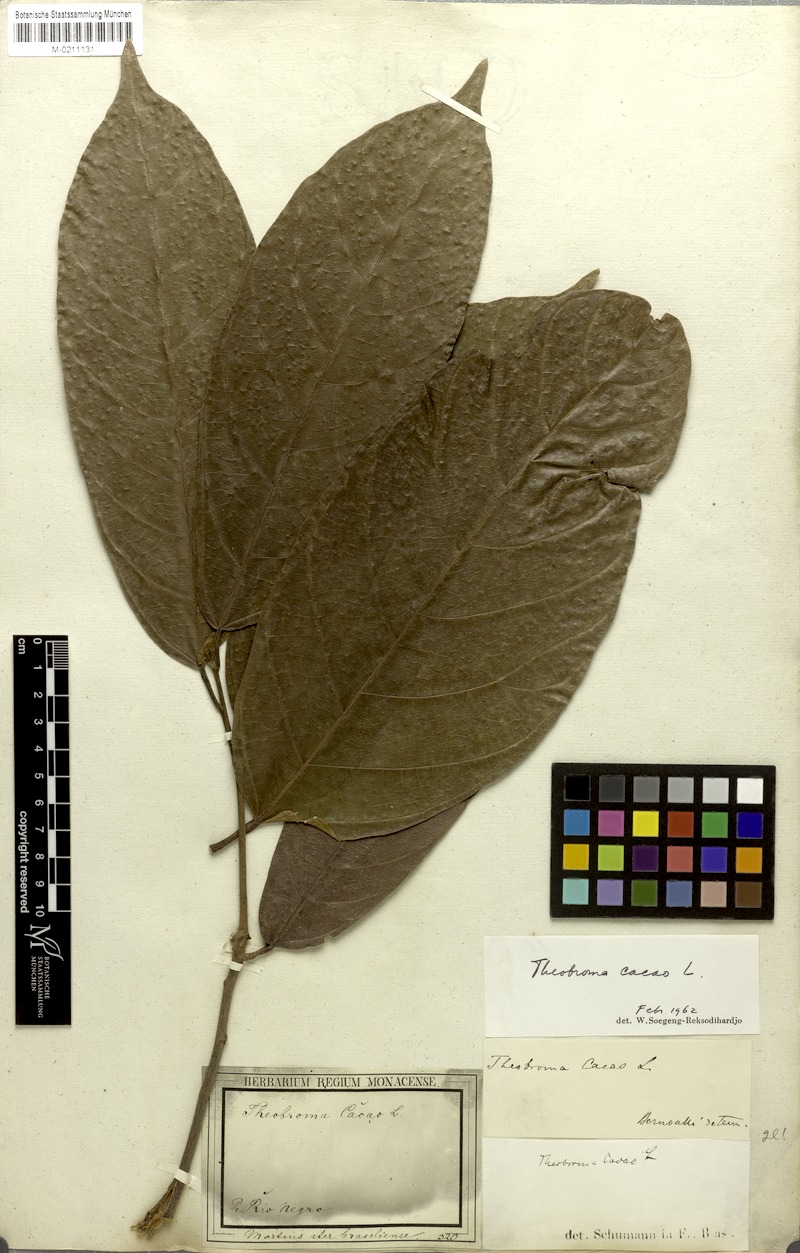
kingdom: Plantae
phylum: Tracheophyta
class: Magnoliopsida
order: Malvales
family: Malvaceae
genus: Theobroma
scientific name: Theobroma cacao
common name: Cocoa
